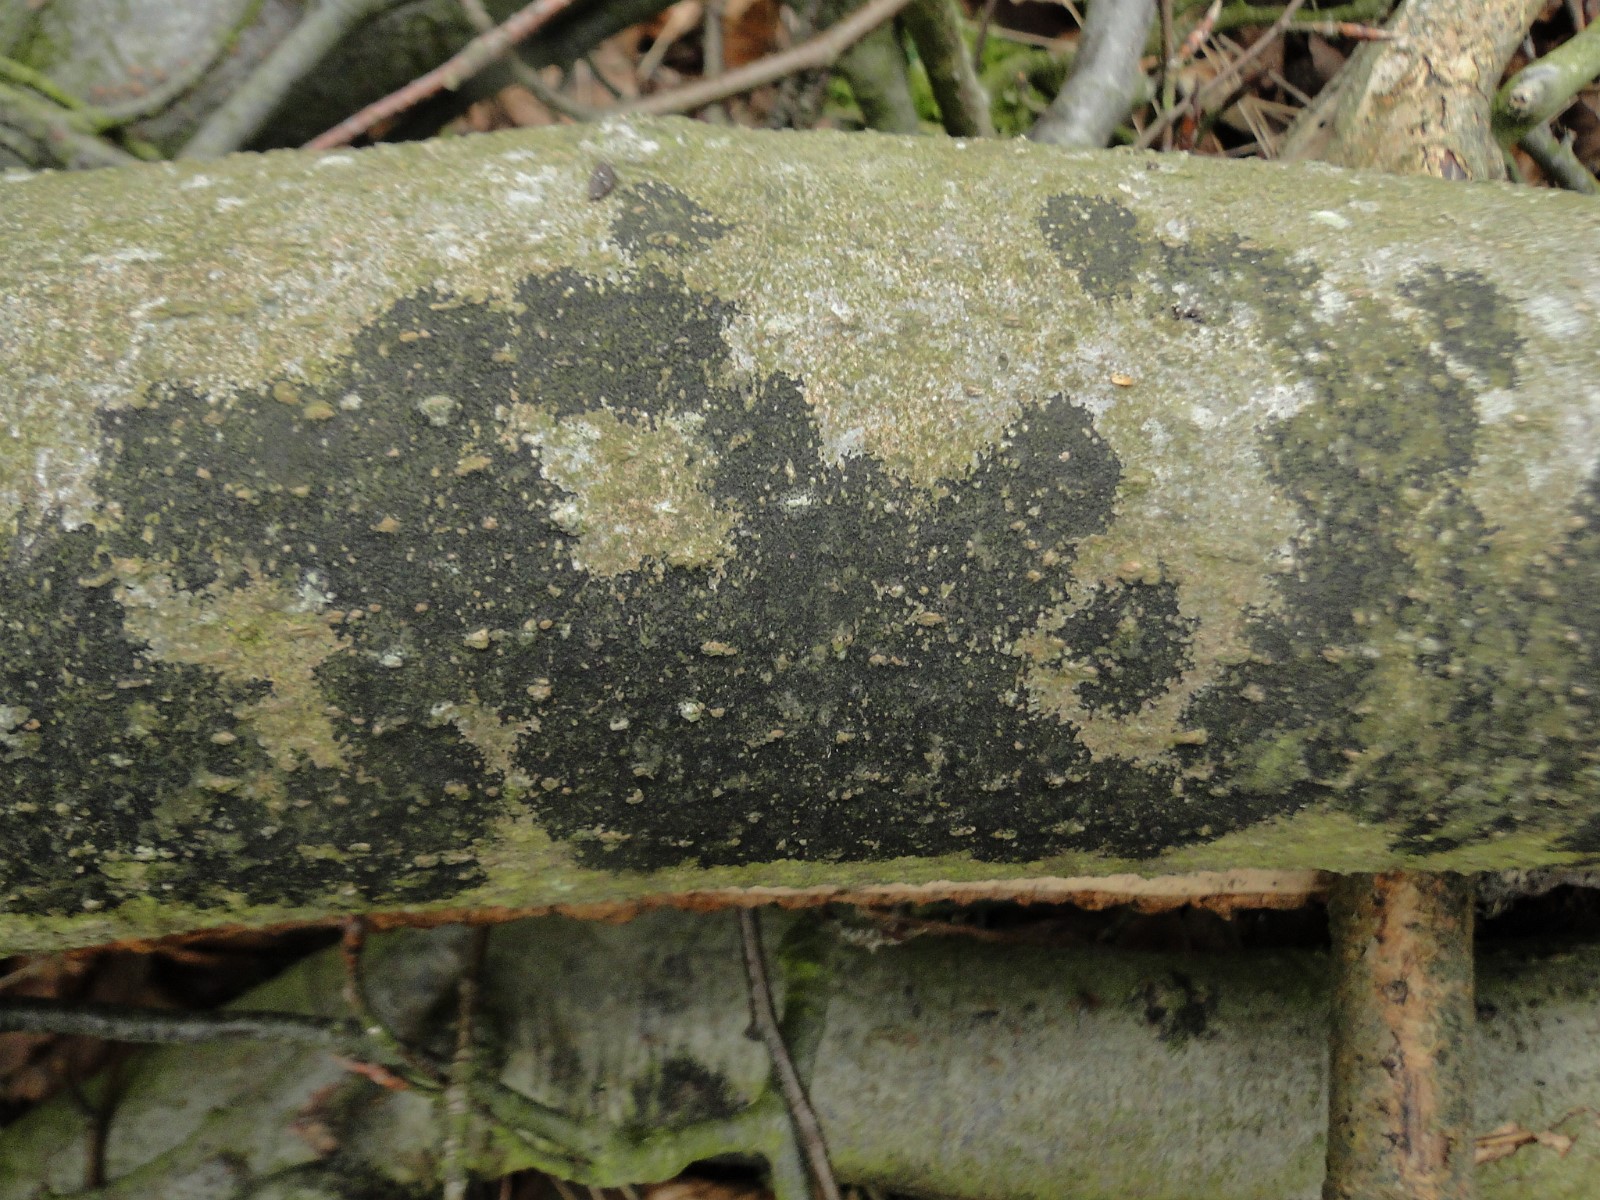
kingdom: Fungi
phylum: Ascomycota
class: Leotiomycetes
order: Rhytismatales
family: Ascodichaenaceae
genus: Ascodichaena
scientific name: Ascodichaena rugosa
